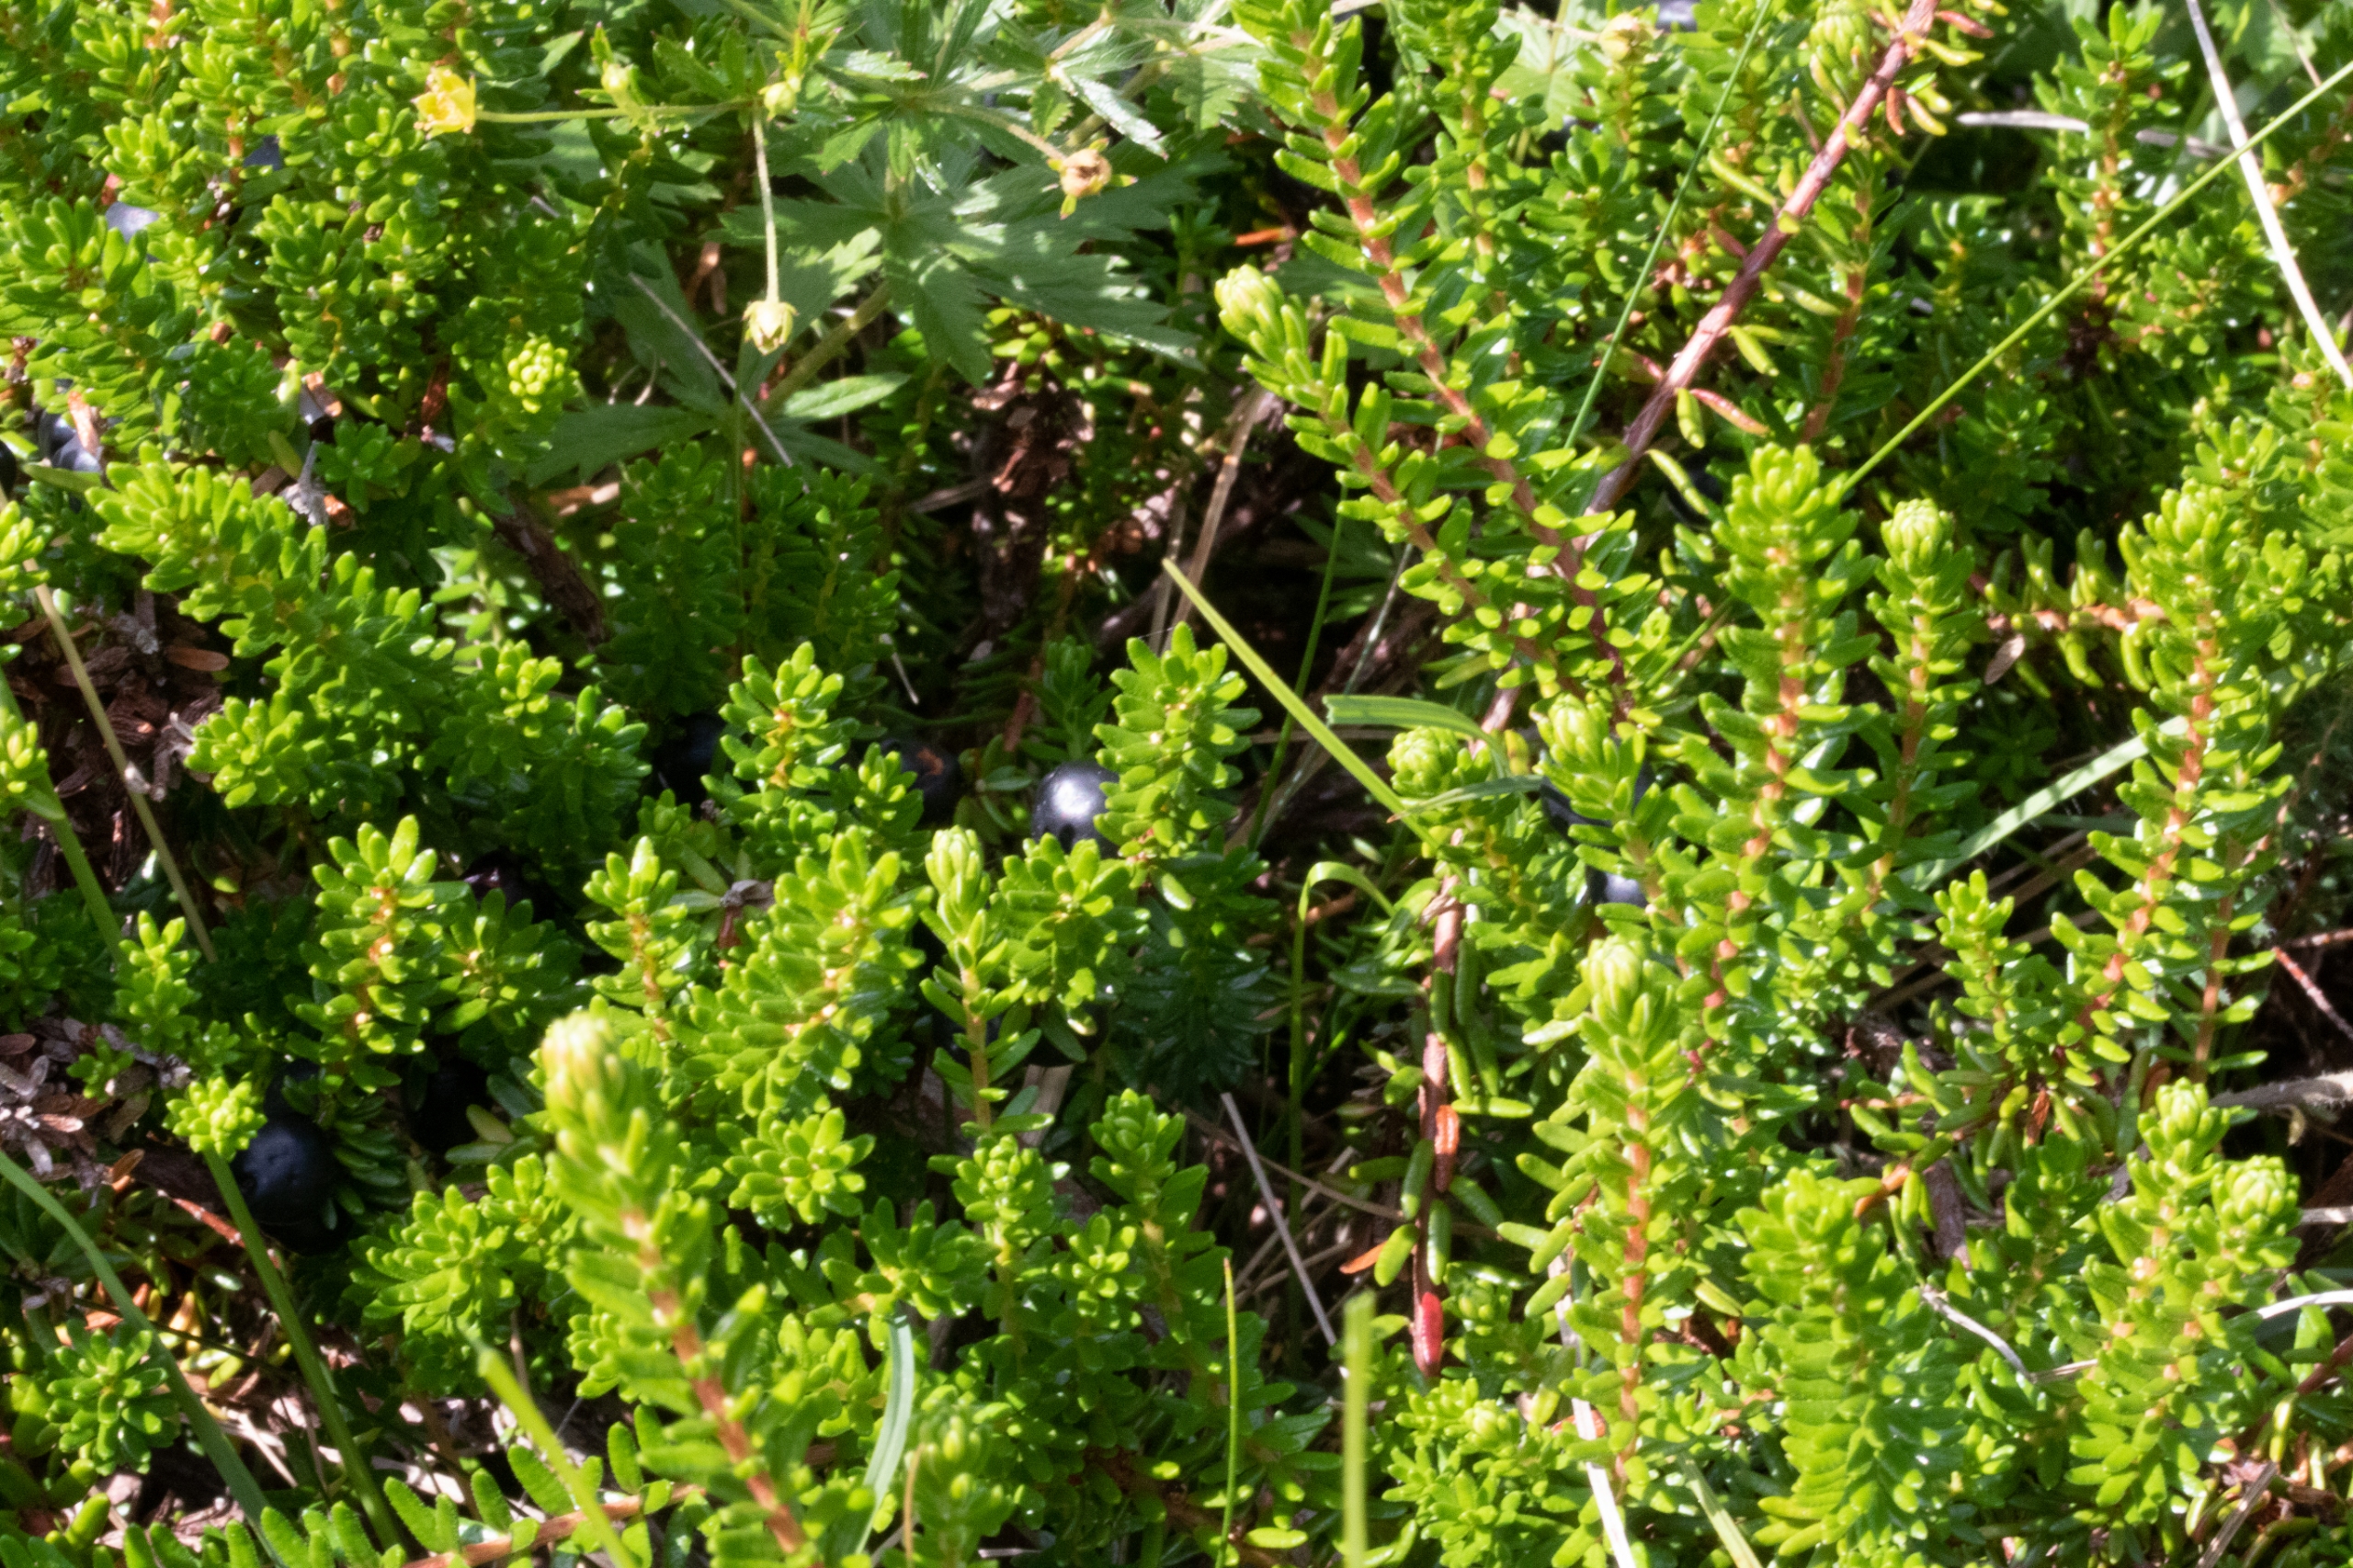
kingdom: Plantae
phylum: Tracheophyta
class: Magnoliopsida
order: Ericales
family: Ericaceae
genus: Empetrum
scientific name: Empetrum nigrum
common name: Revling
